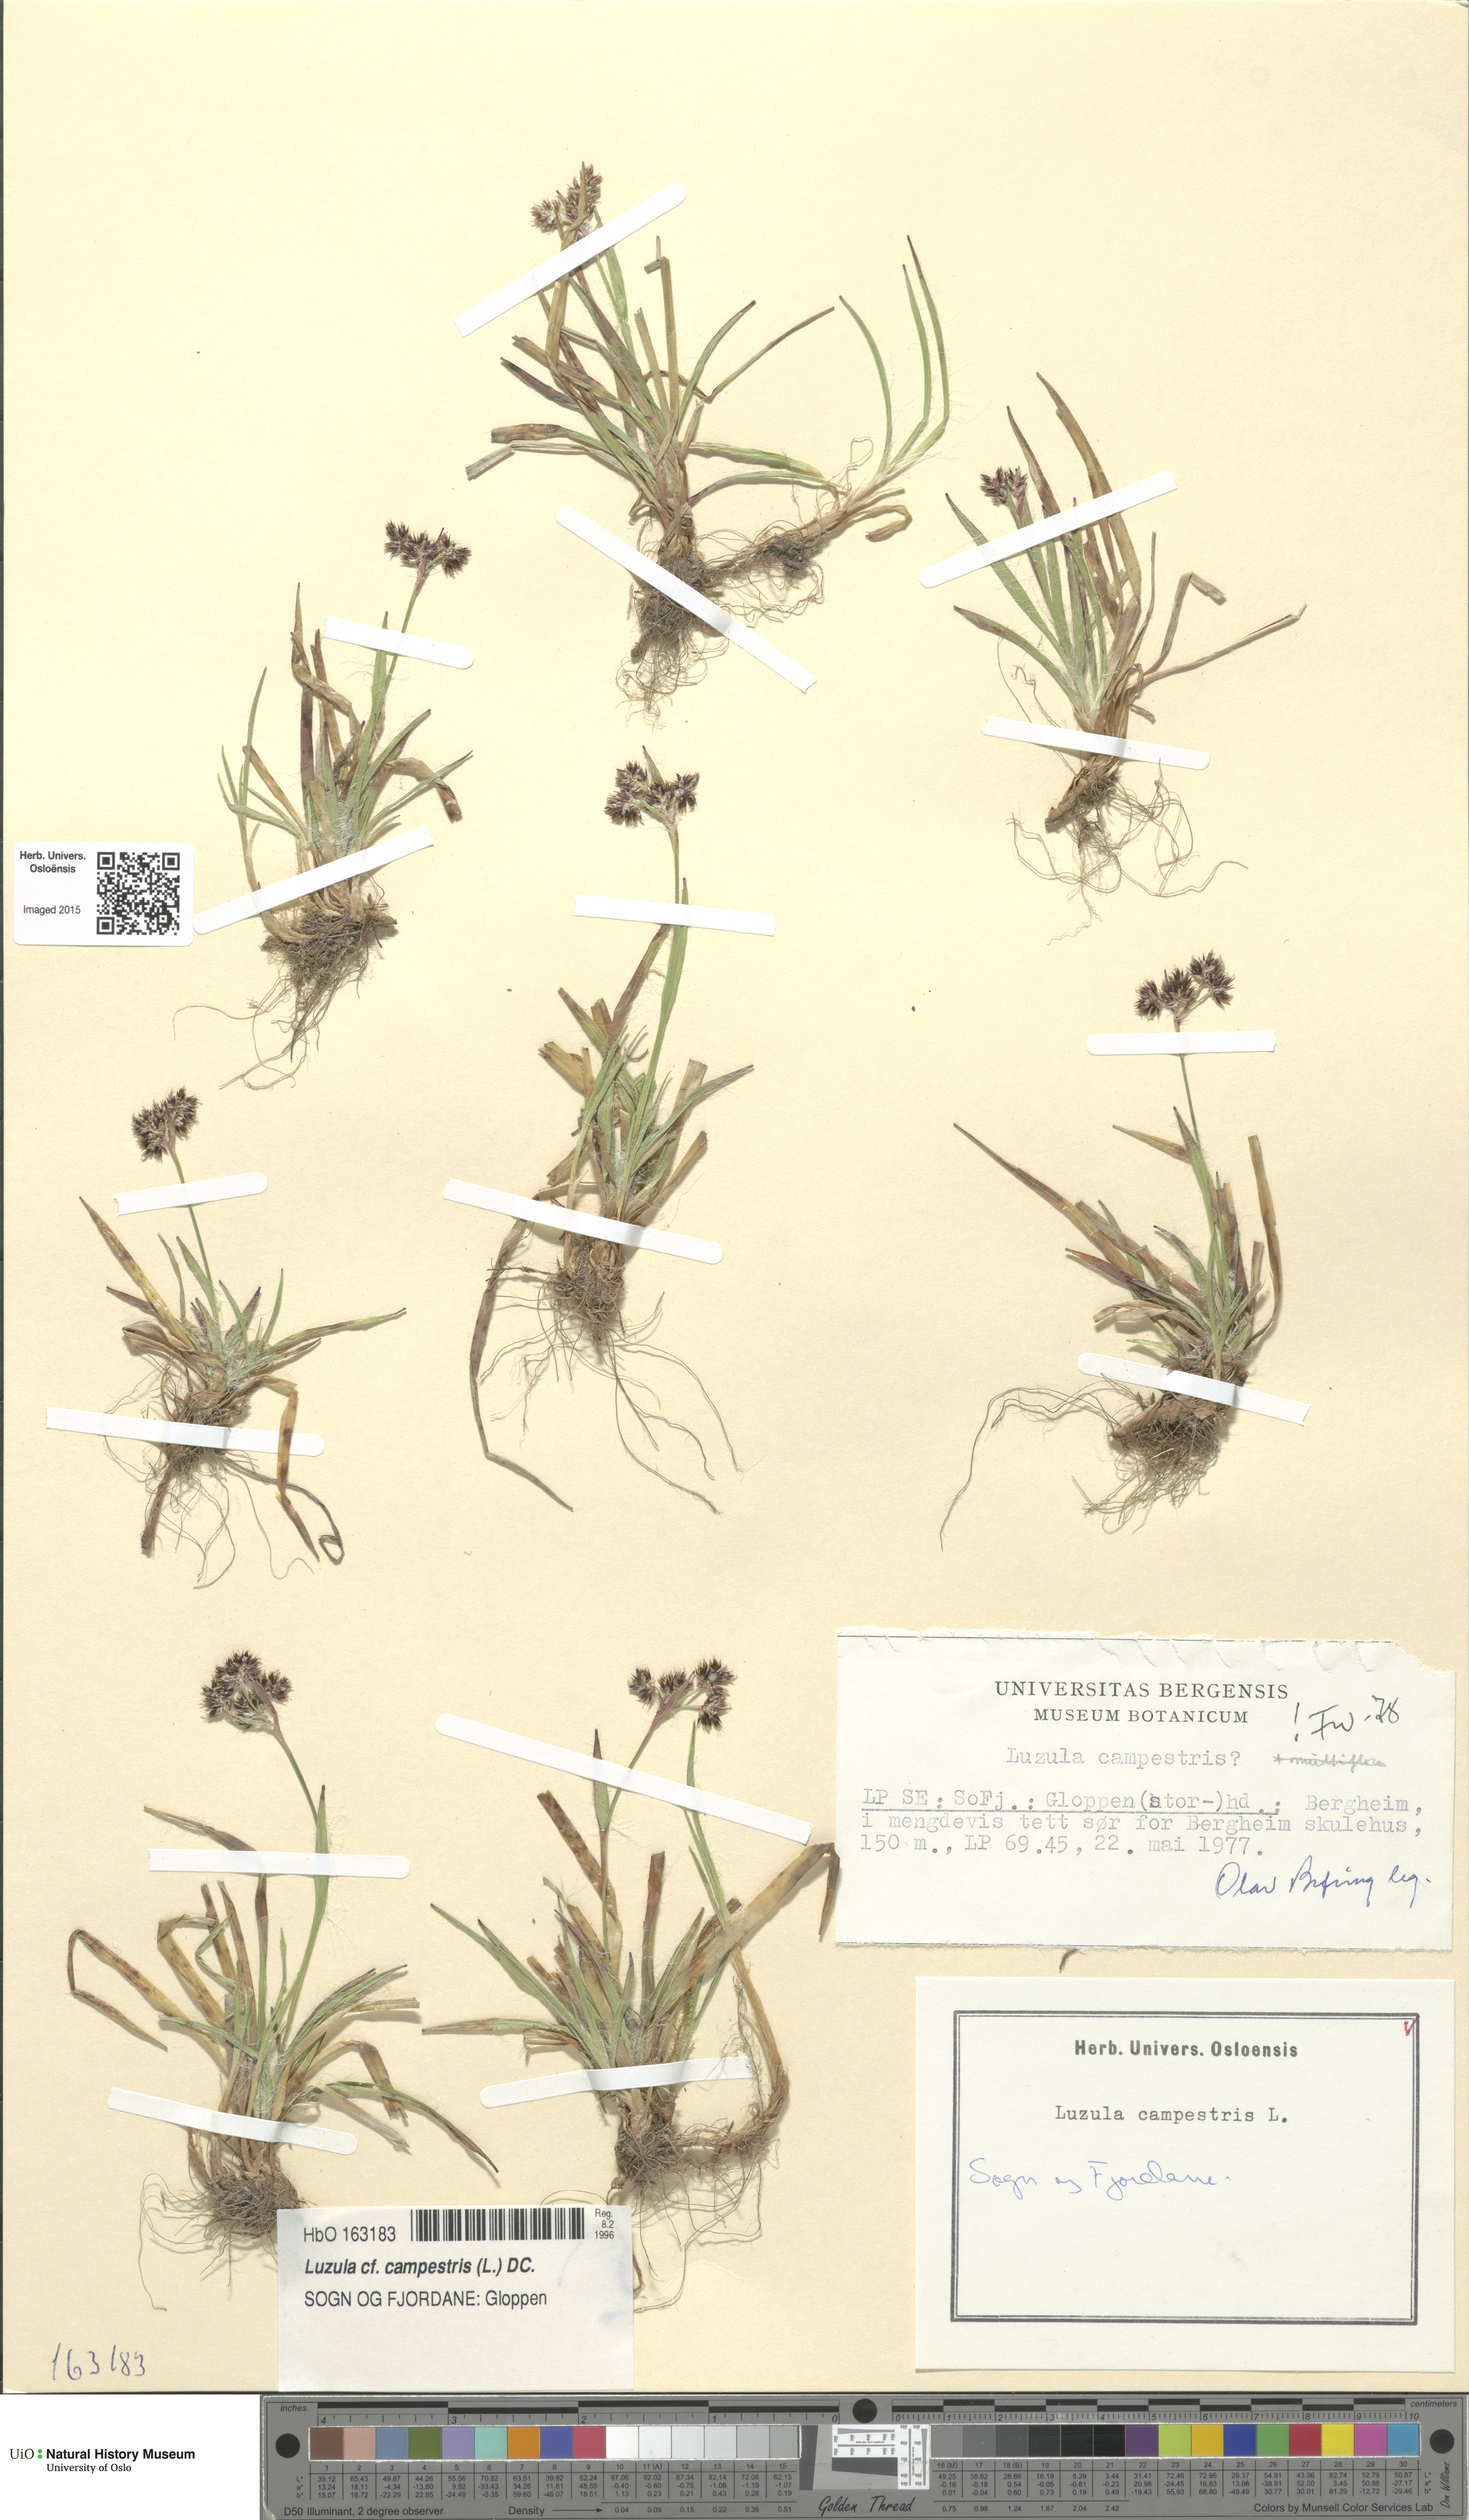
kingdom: Plantae
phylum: Tracheophyta
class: Liliopsida
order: Poales
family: Juncaceae
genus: Luzula
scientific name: Luzula campestris
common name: Field wood-rush
